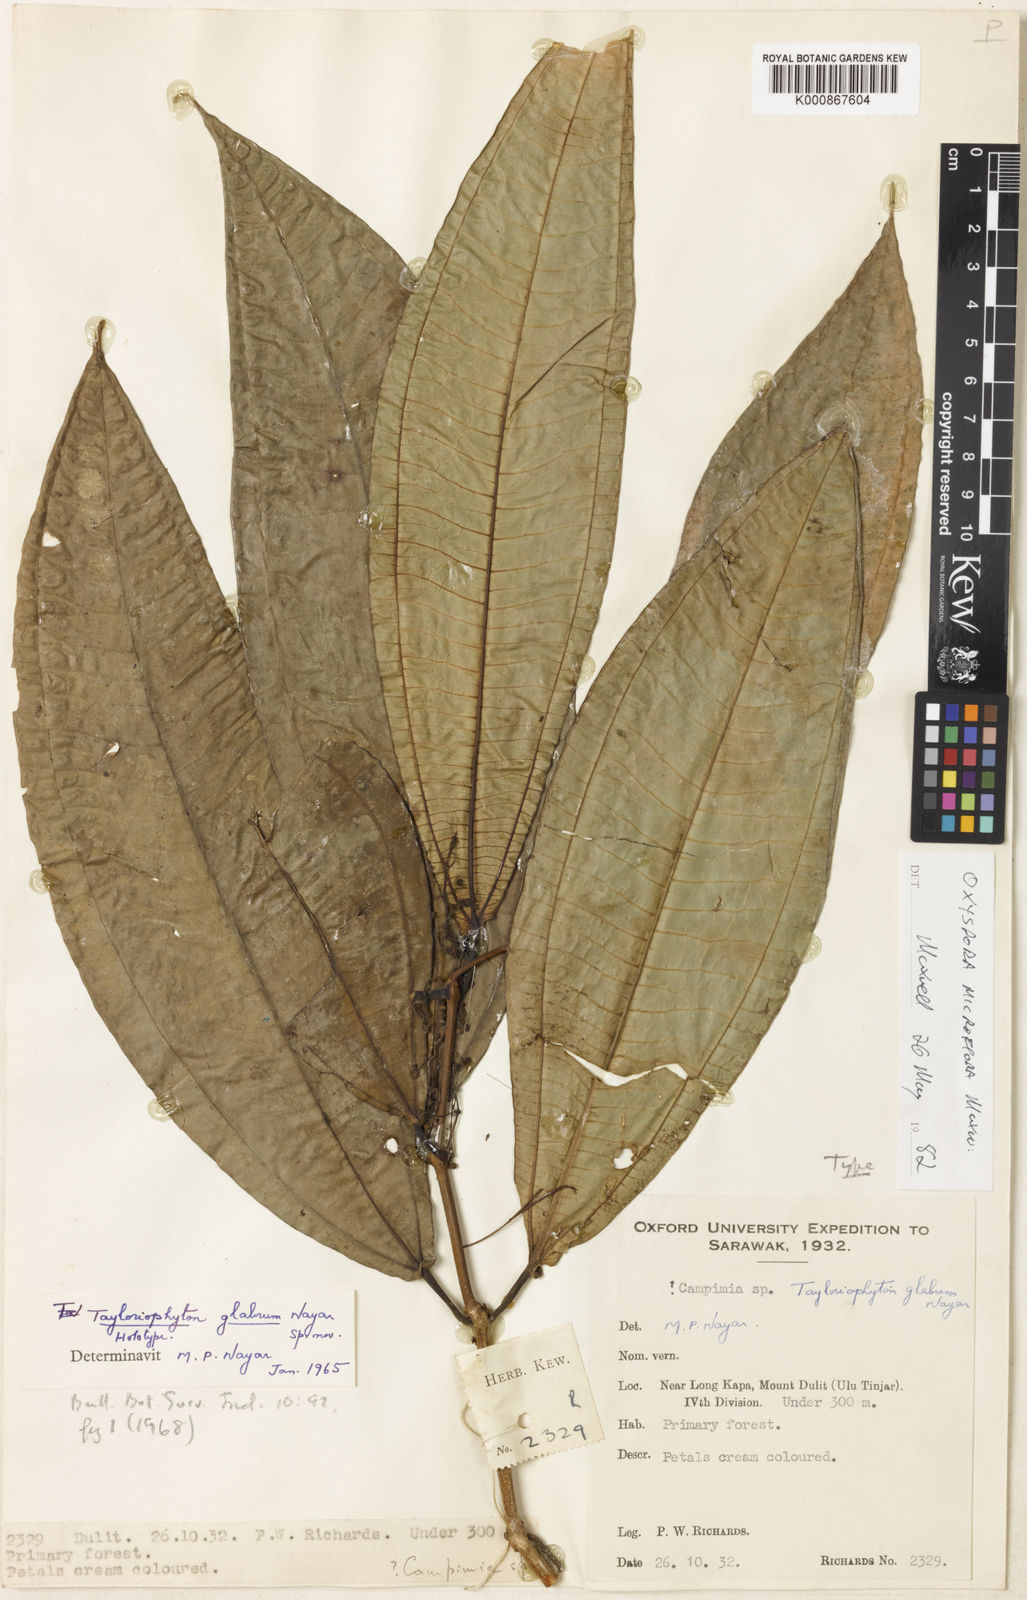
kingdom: Plantae
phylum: Tracheophyta
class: Magnoliopsida
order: Myrtales
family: Melastomataceae
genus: Tayloriophyton
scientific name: Tayloriophyton glabrum
